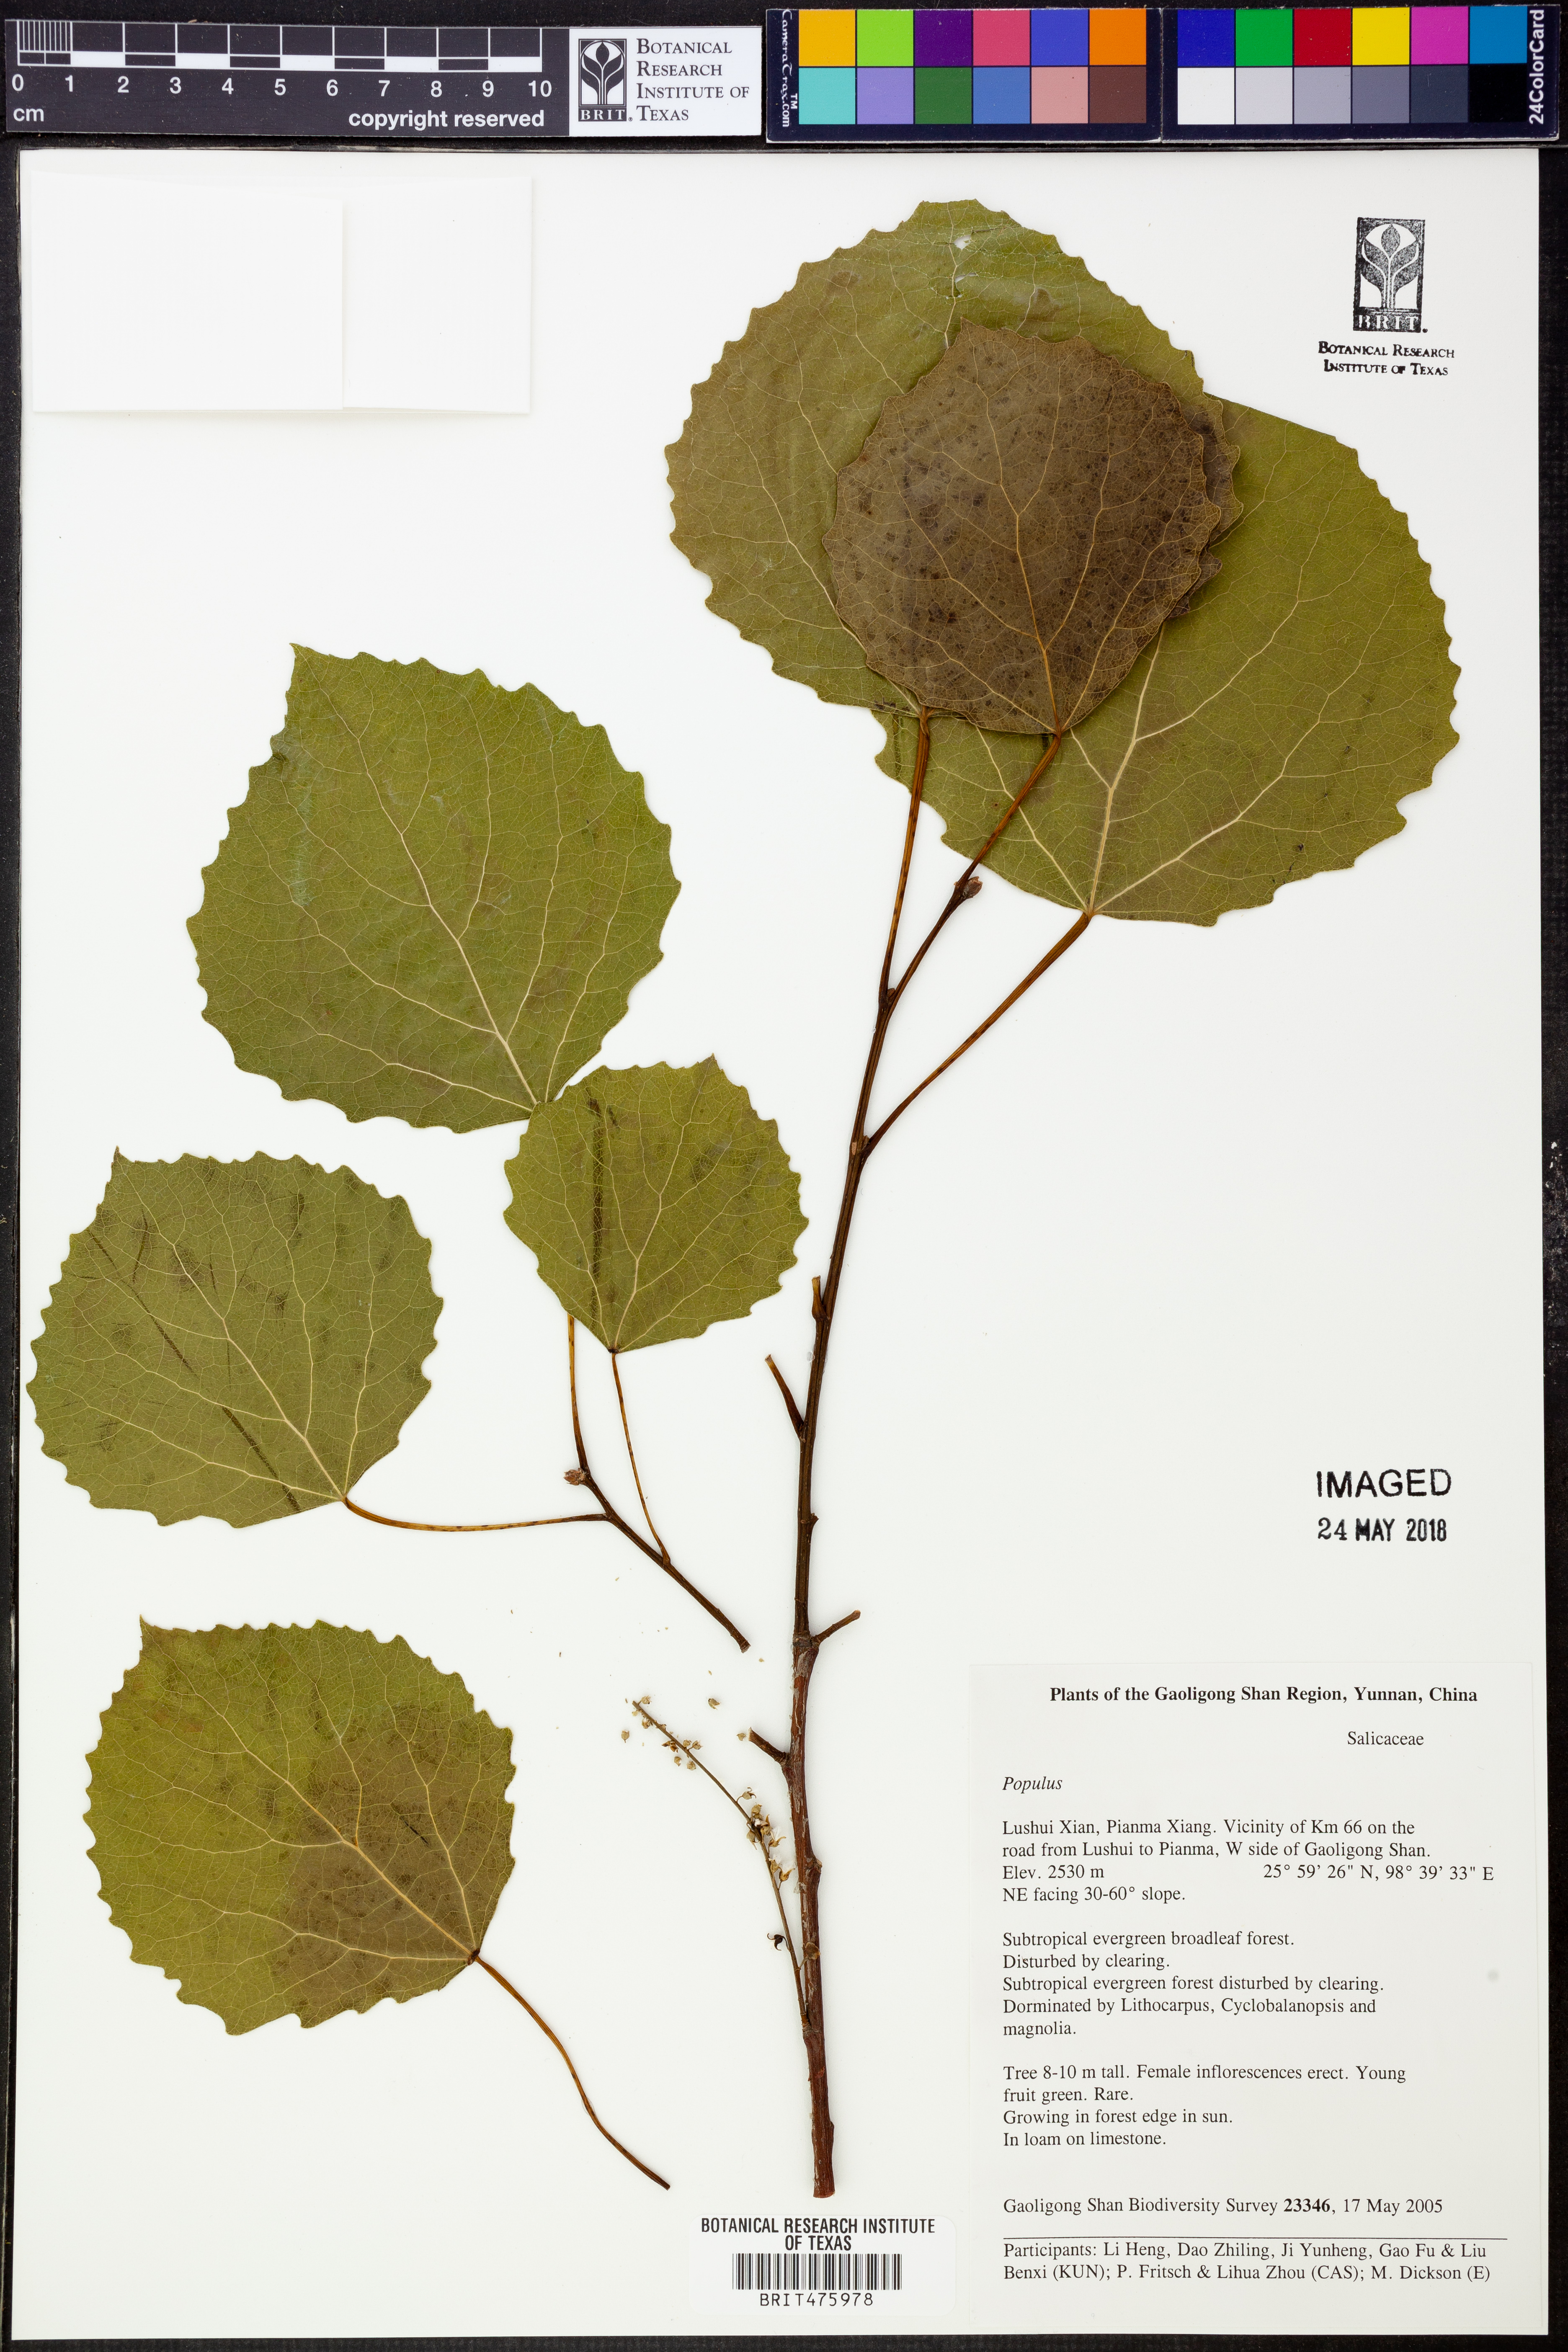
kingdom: Plantae
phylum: Tracheophyta
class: Magnoliopsida
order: Malpighiales
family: Salicaceae
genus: Populus
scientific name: Populus
